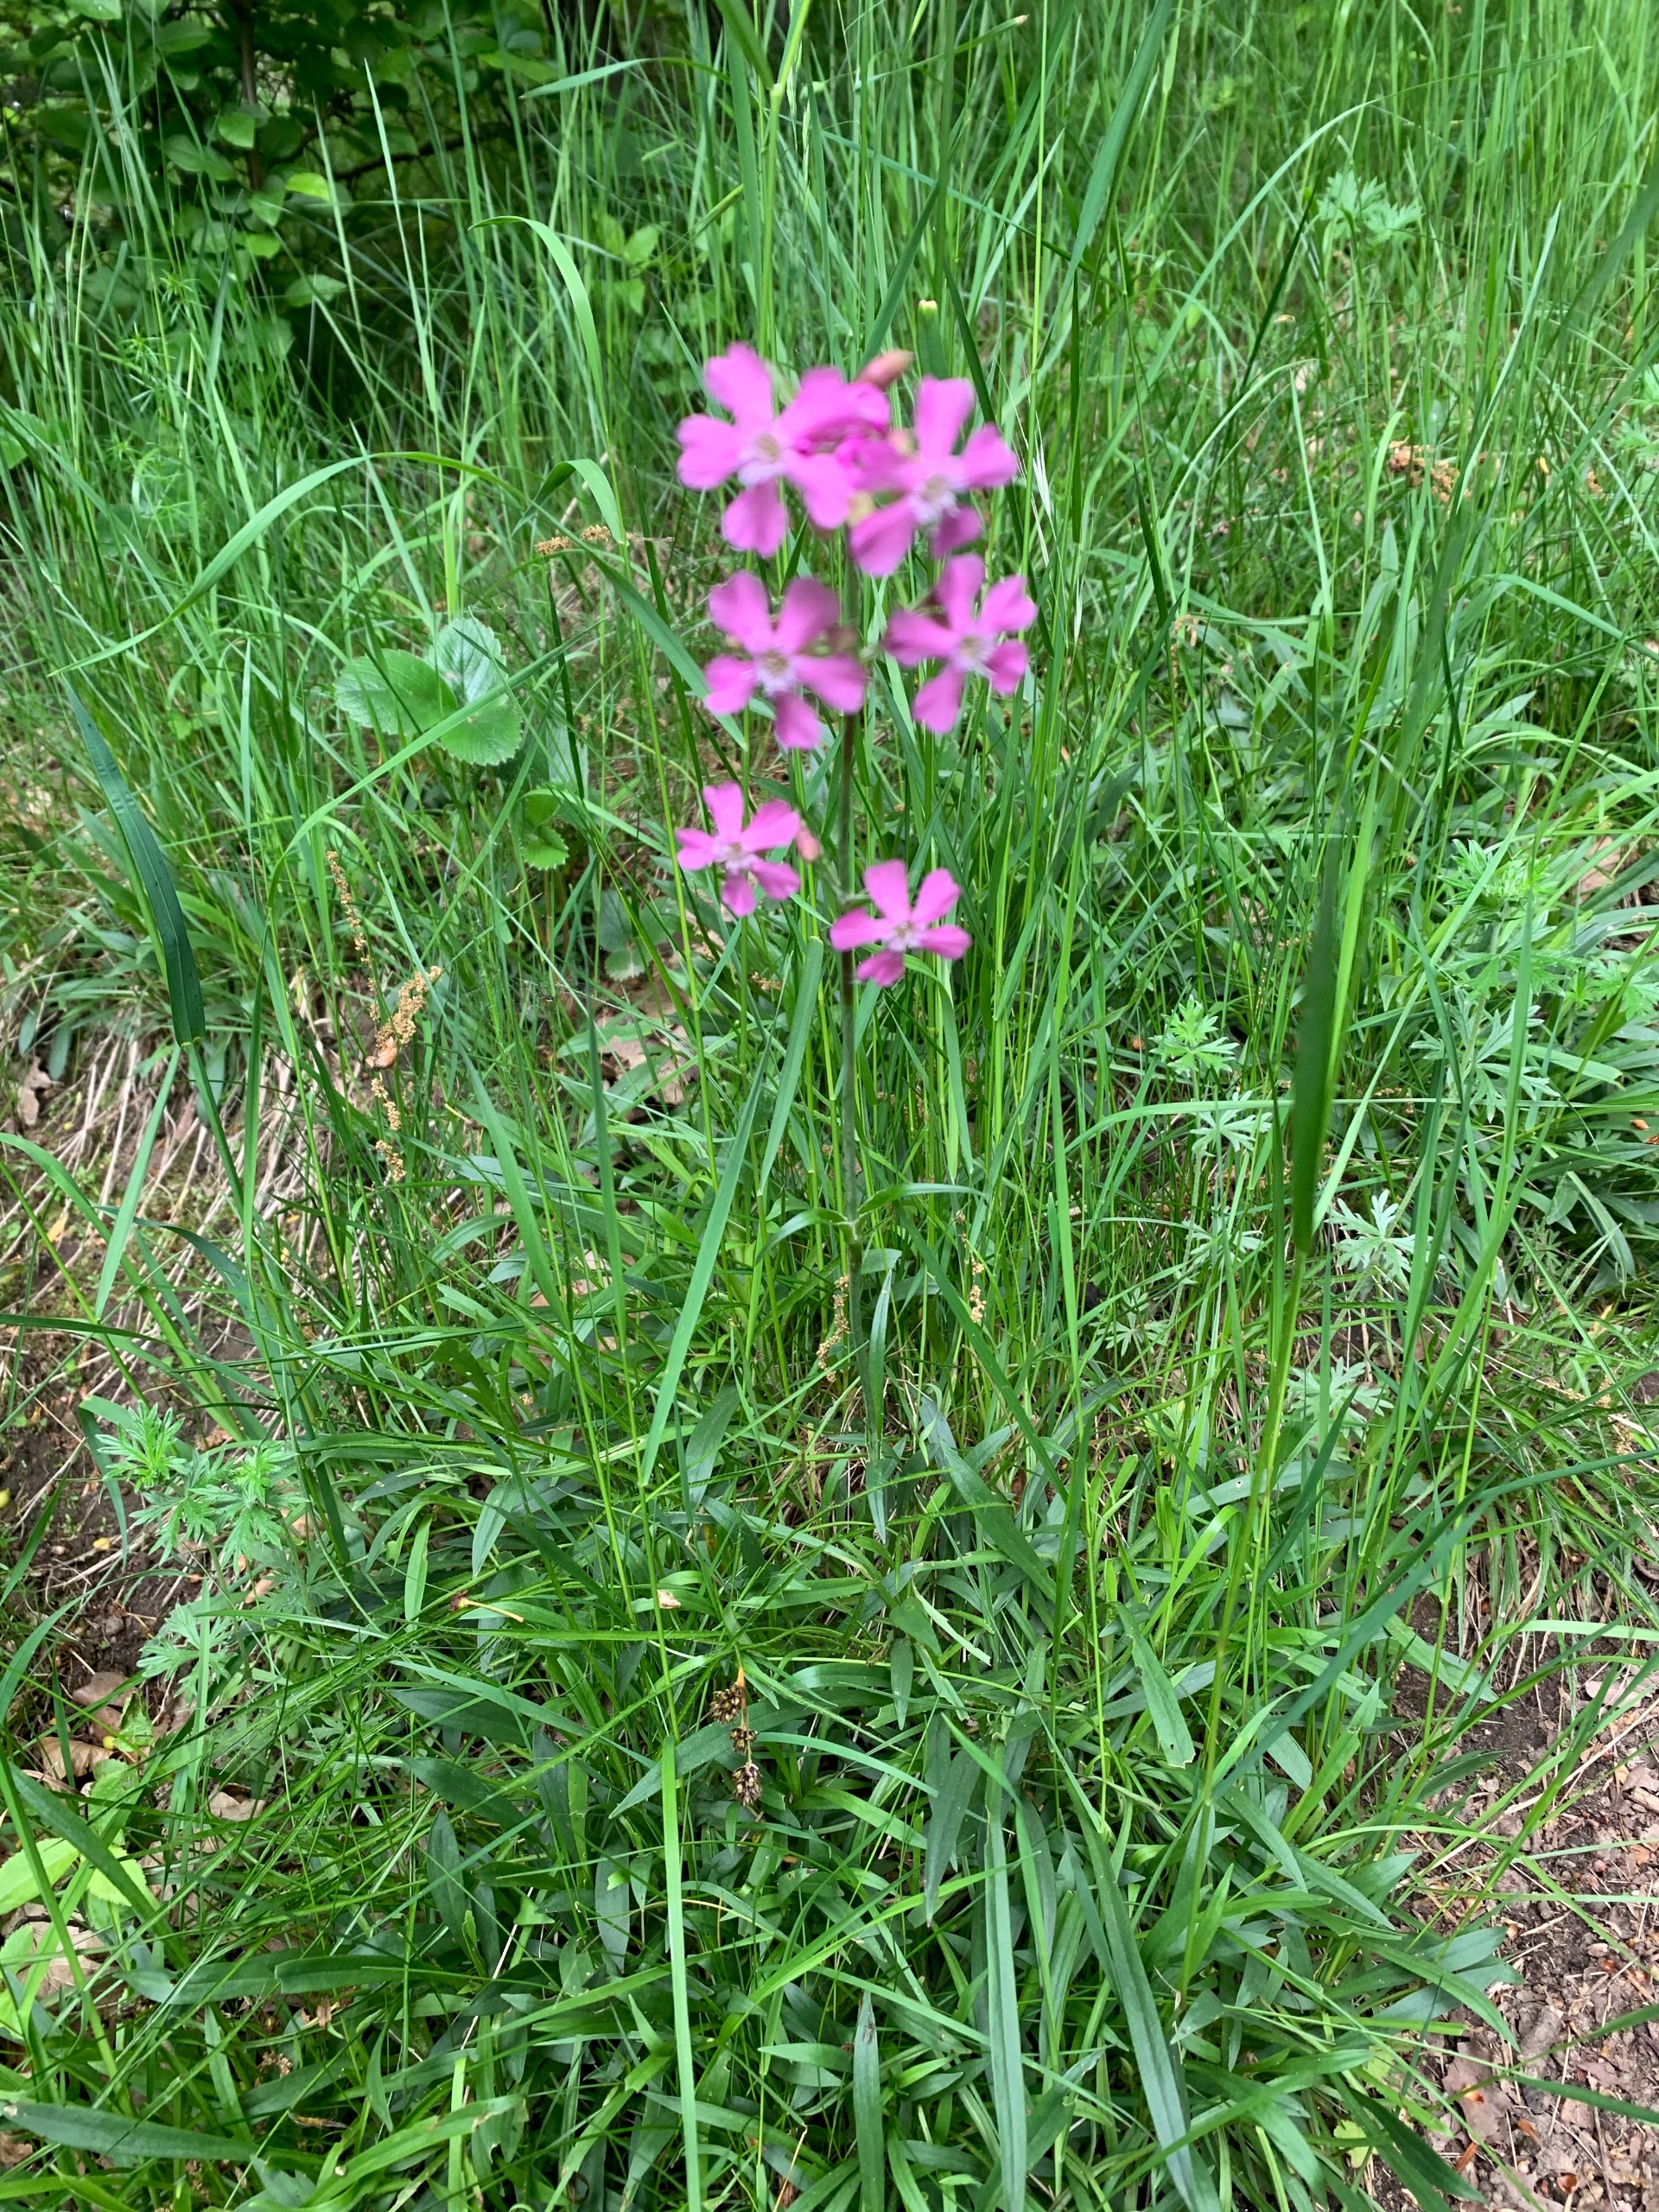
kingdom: Plantae
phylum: Tracheophyta
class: Magnoliopsida
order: Caryophyllales
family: Caryophyllaceae
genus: Viscaria
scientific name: Viscaria vulgaris
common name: Tjærenellike
